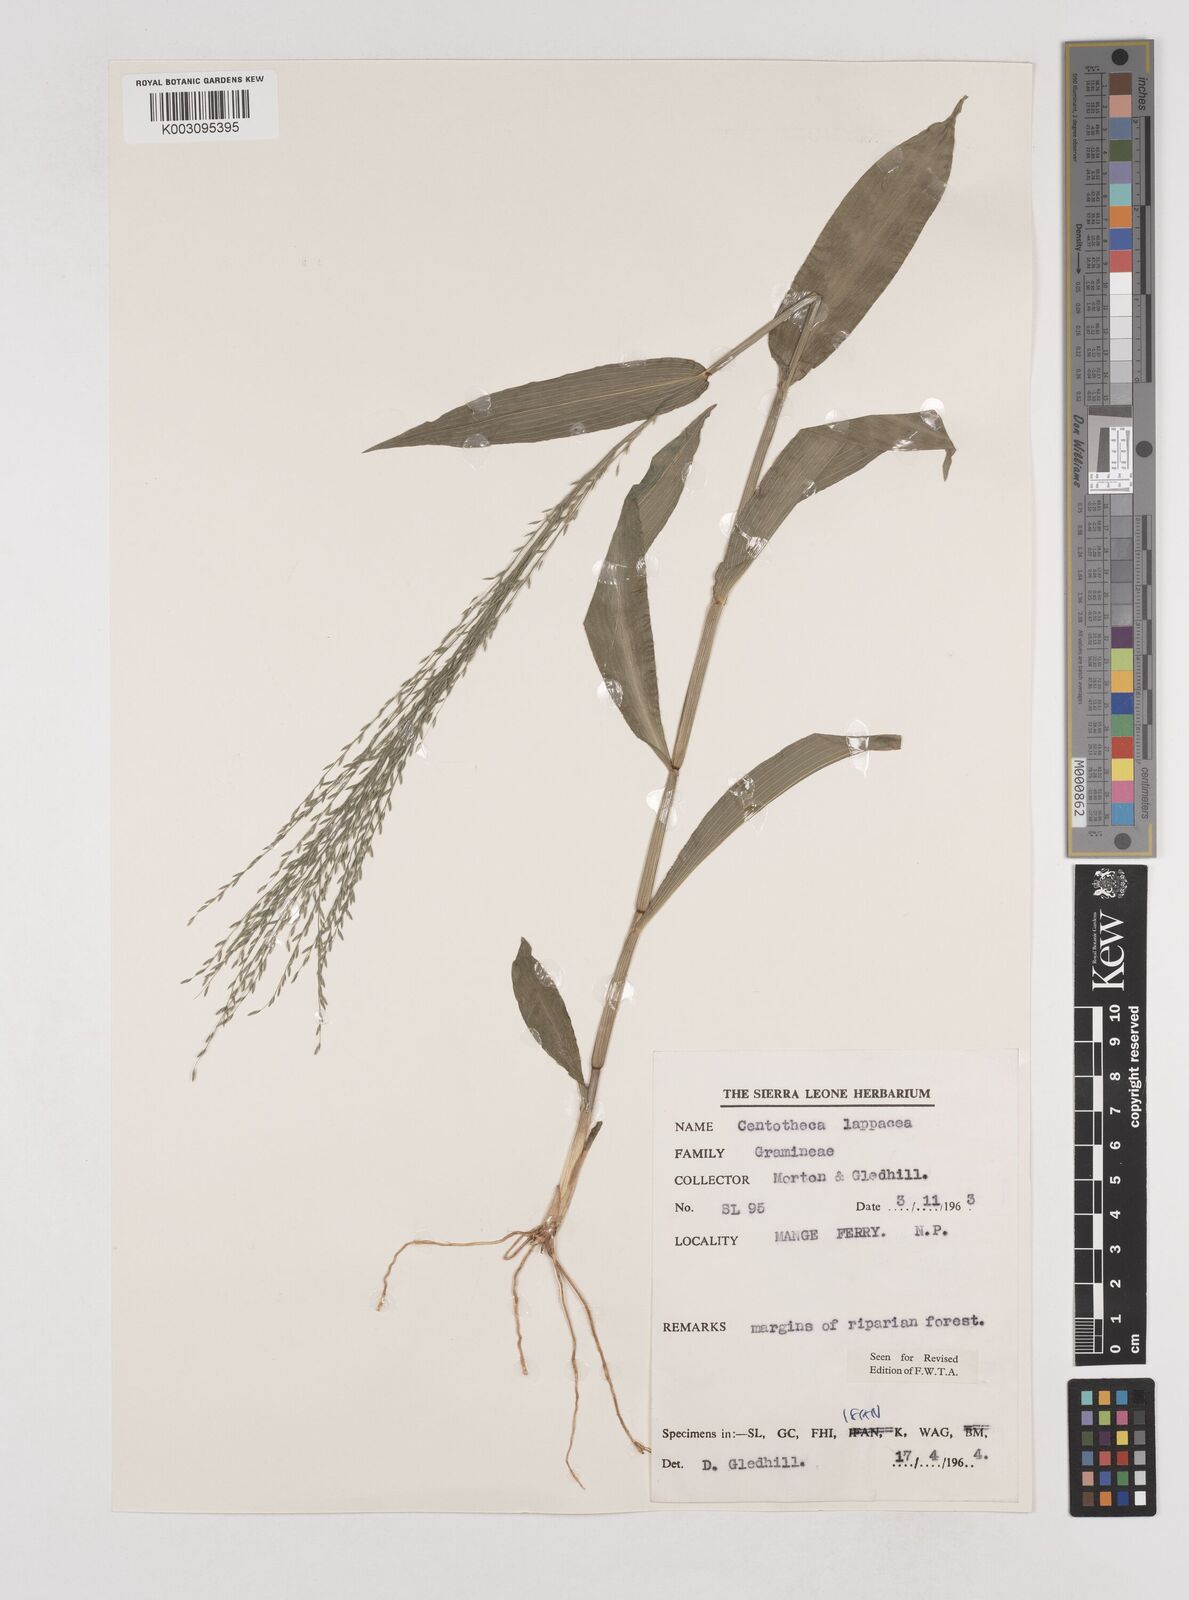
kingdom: Plantae
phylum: Tracheophyta
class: Liliopsida
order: Poales
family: Poaceae
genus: Centotheca
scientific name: Centotheca lappacea
